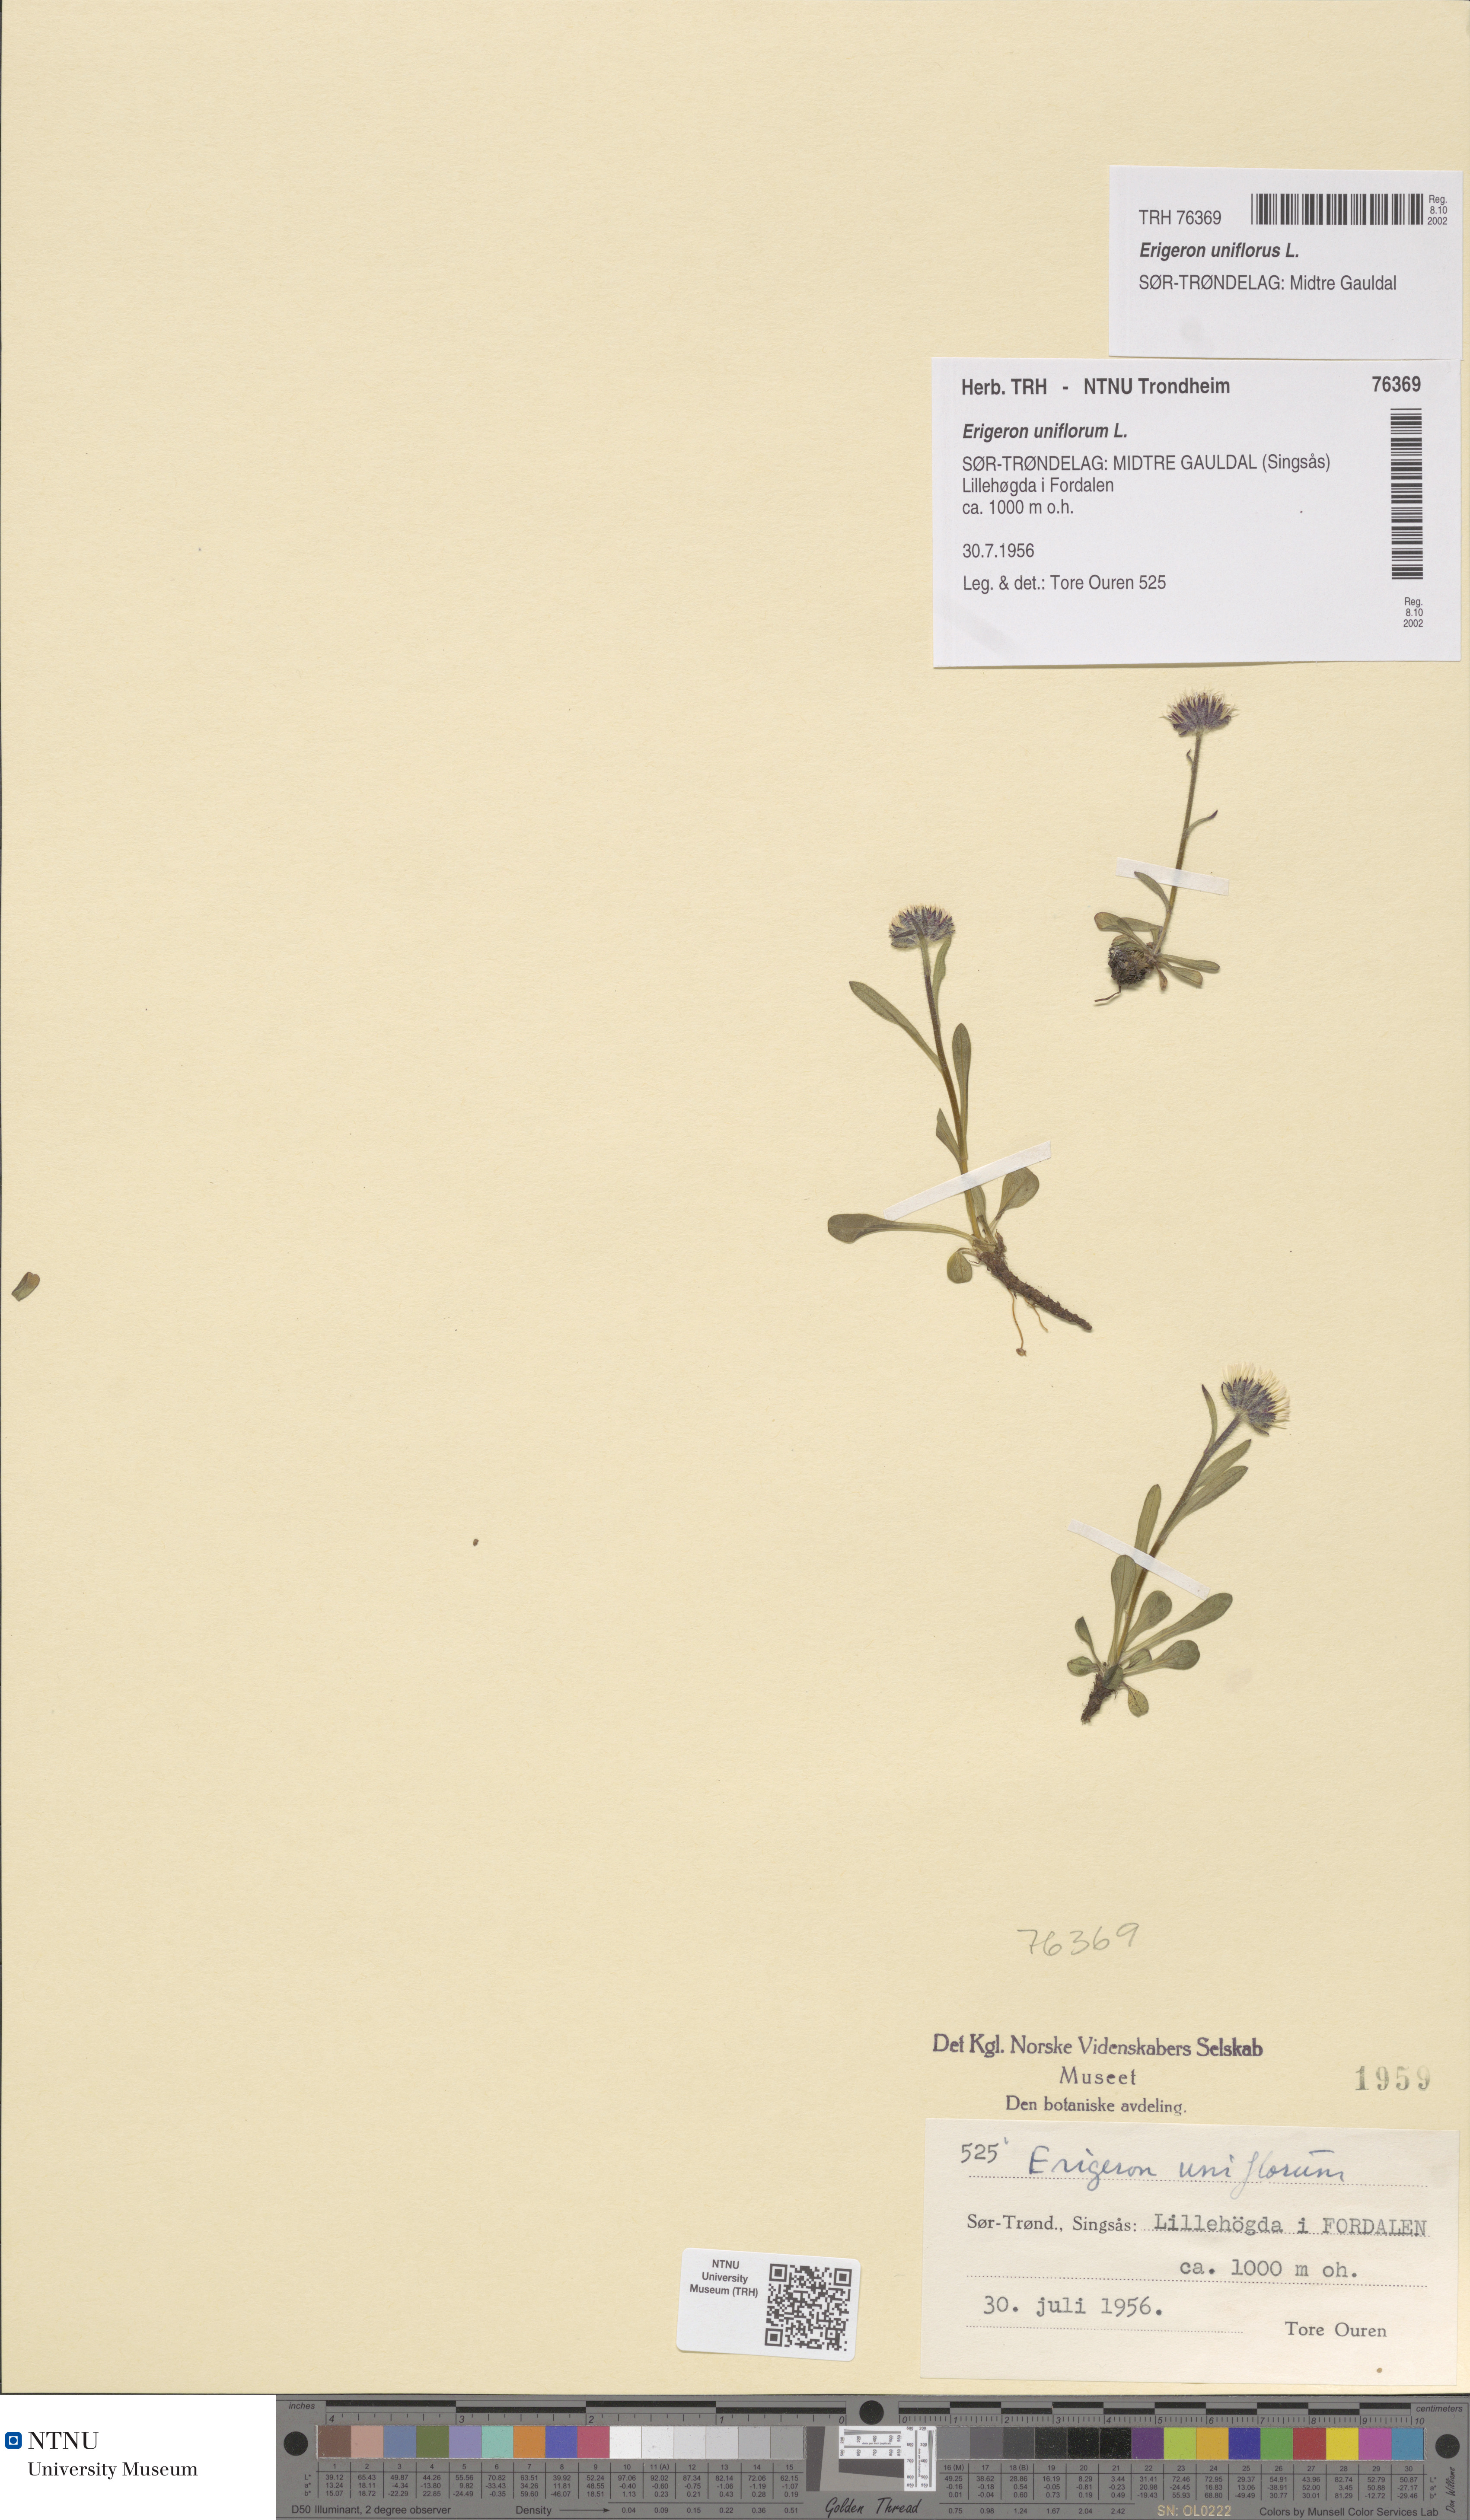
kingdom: Plantae
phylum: Tracheophyta
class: Magnoliopsida
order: Asterales
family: Asteraceae
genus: Erigeron
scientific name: Erigeron uniflorus
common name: Northern daisy
